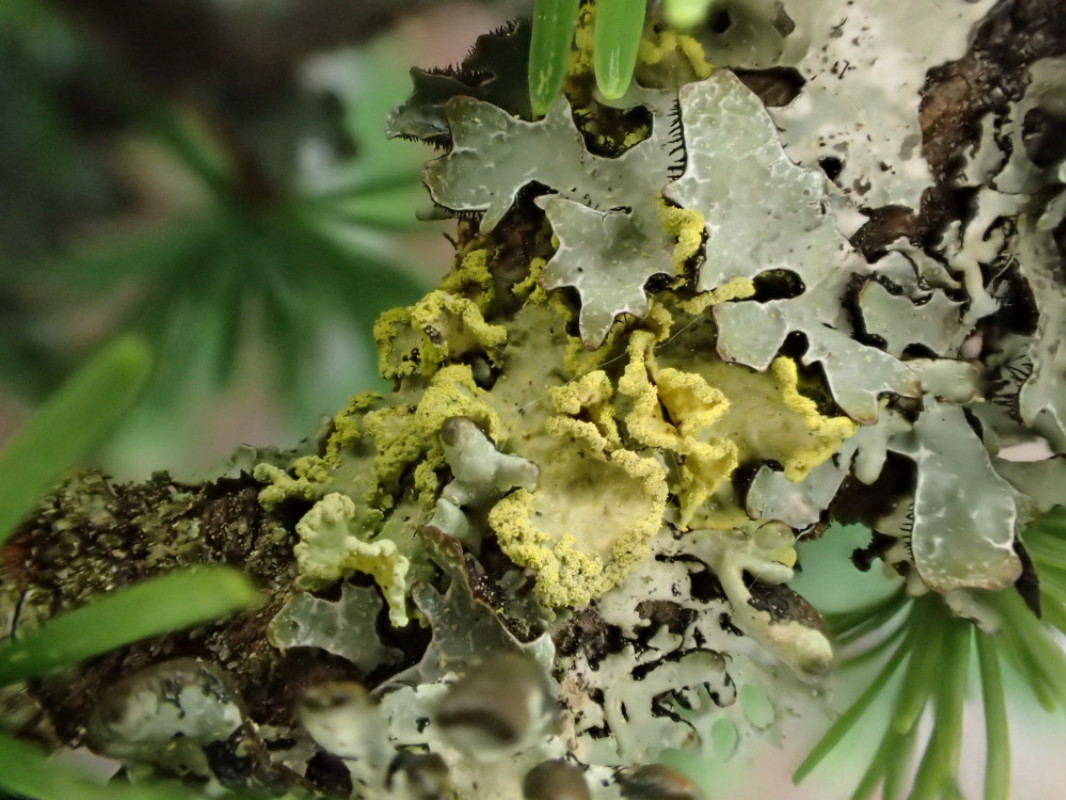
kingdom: Fungi
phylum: Ascomycota
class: Lecanoromycetes
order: Lecanorales
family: Parmeliaceae
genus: Vulpicida
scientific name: Vulpicida pinastri
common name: gul kruslav
